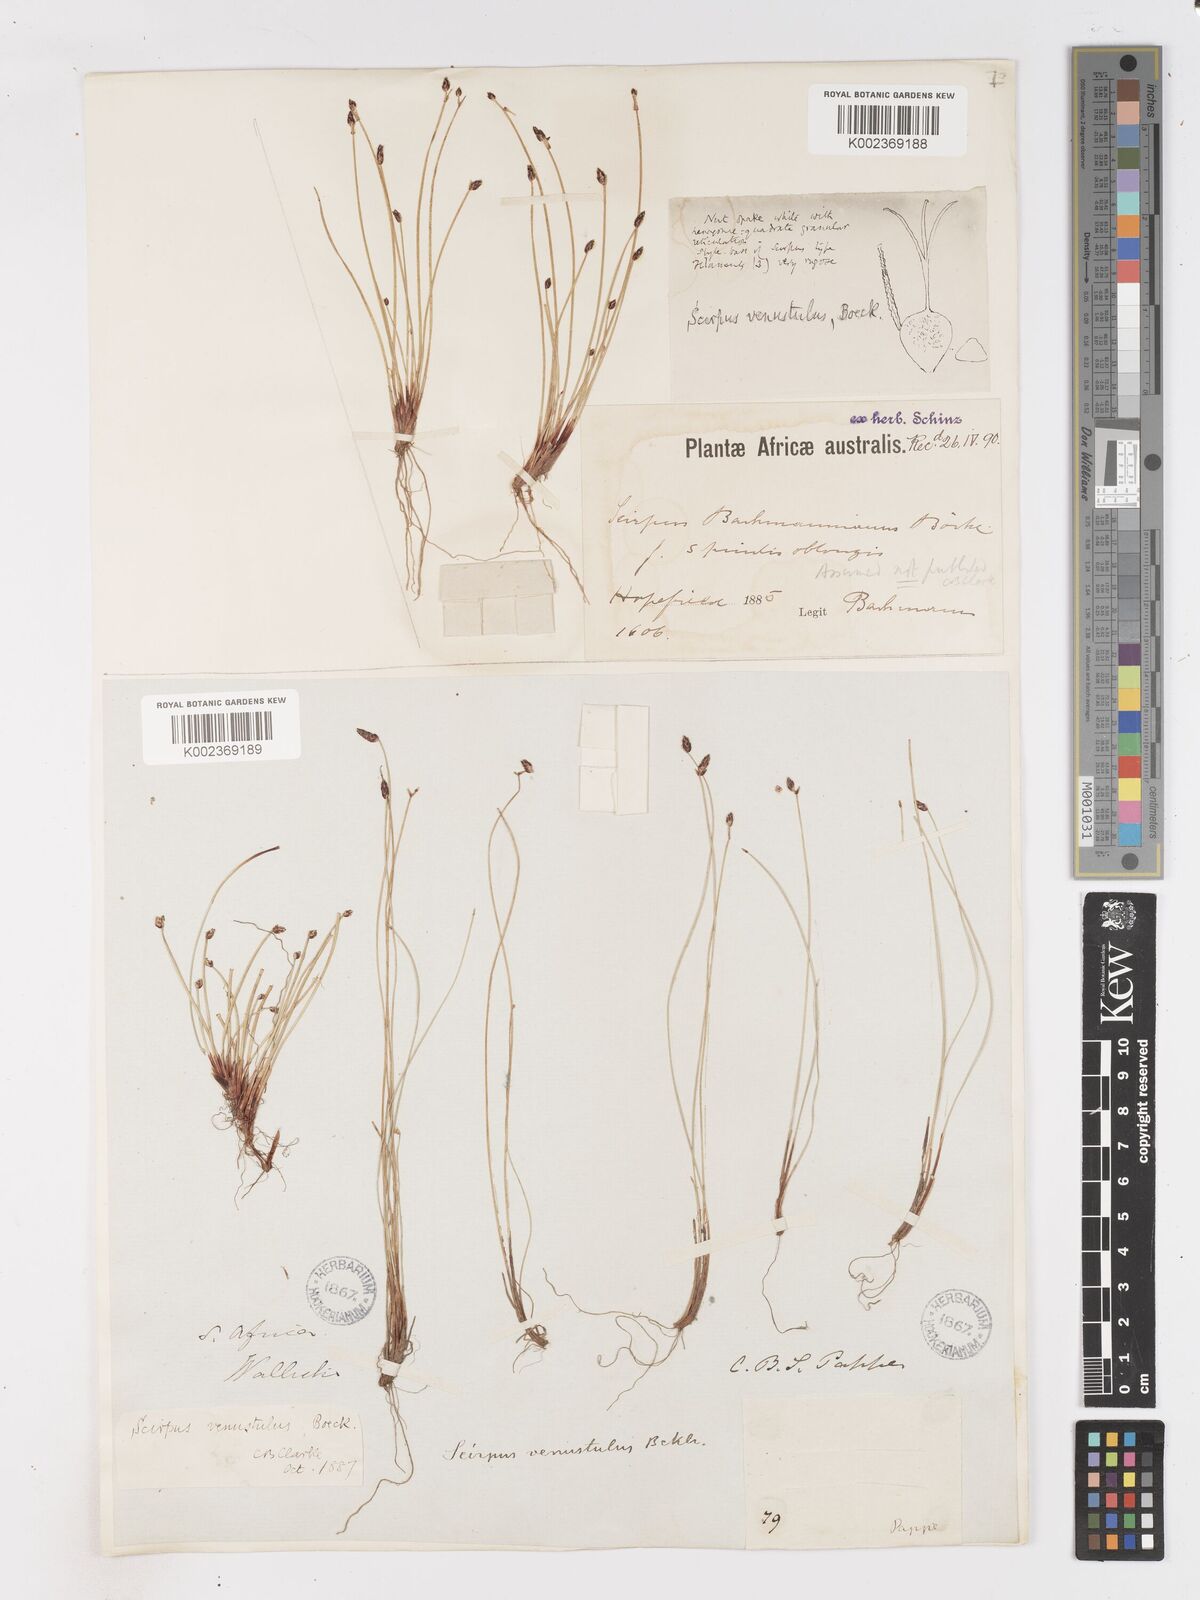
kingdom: Plantae
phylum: Tracheophyta
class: Liliopsida
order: Poales
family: Cyperaceae
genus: Isolepis
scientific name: Isolepis venustula
